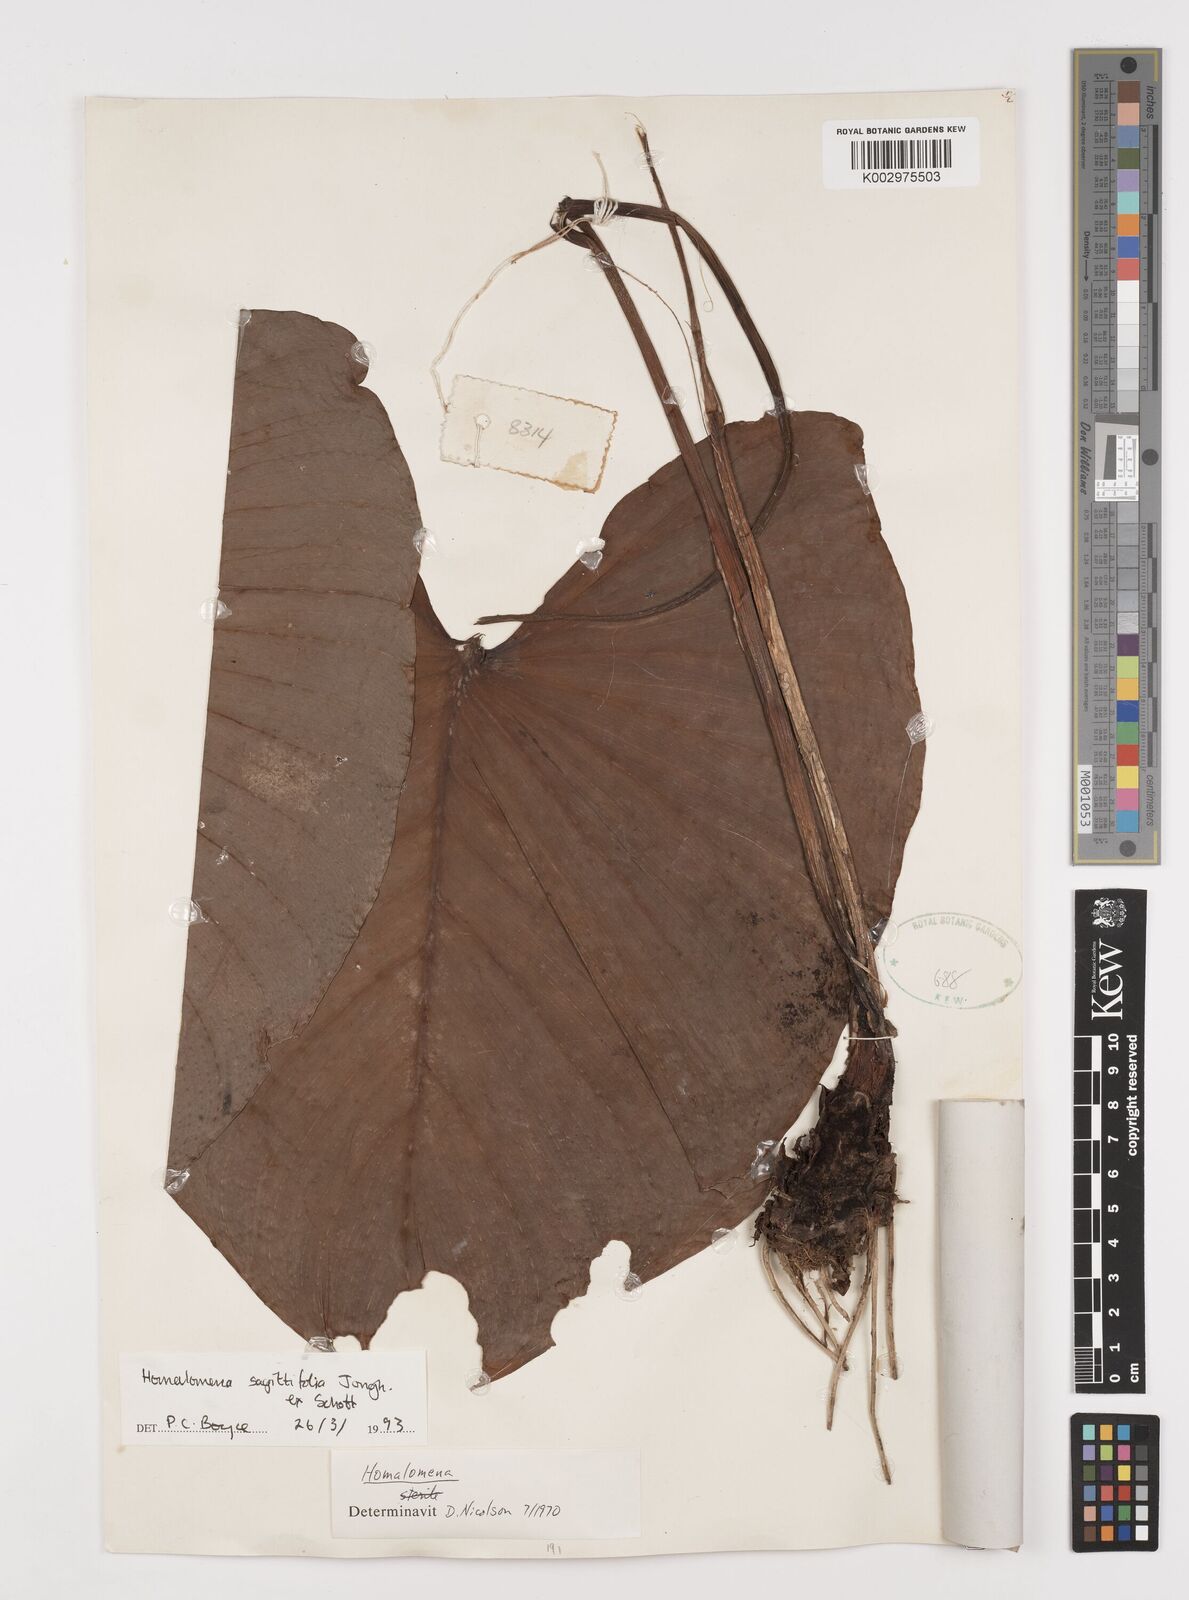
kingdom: Plantae
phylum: Tracheophyta
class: Liliopsida
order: Alismatales
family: Araceae
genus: Homalomena
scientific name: Homalomena rostrata
